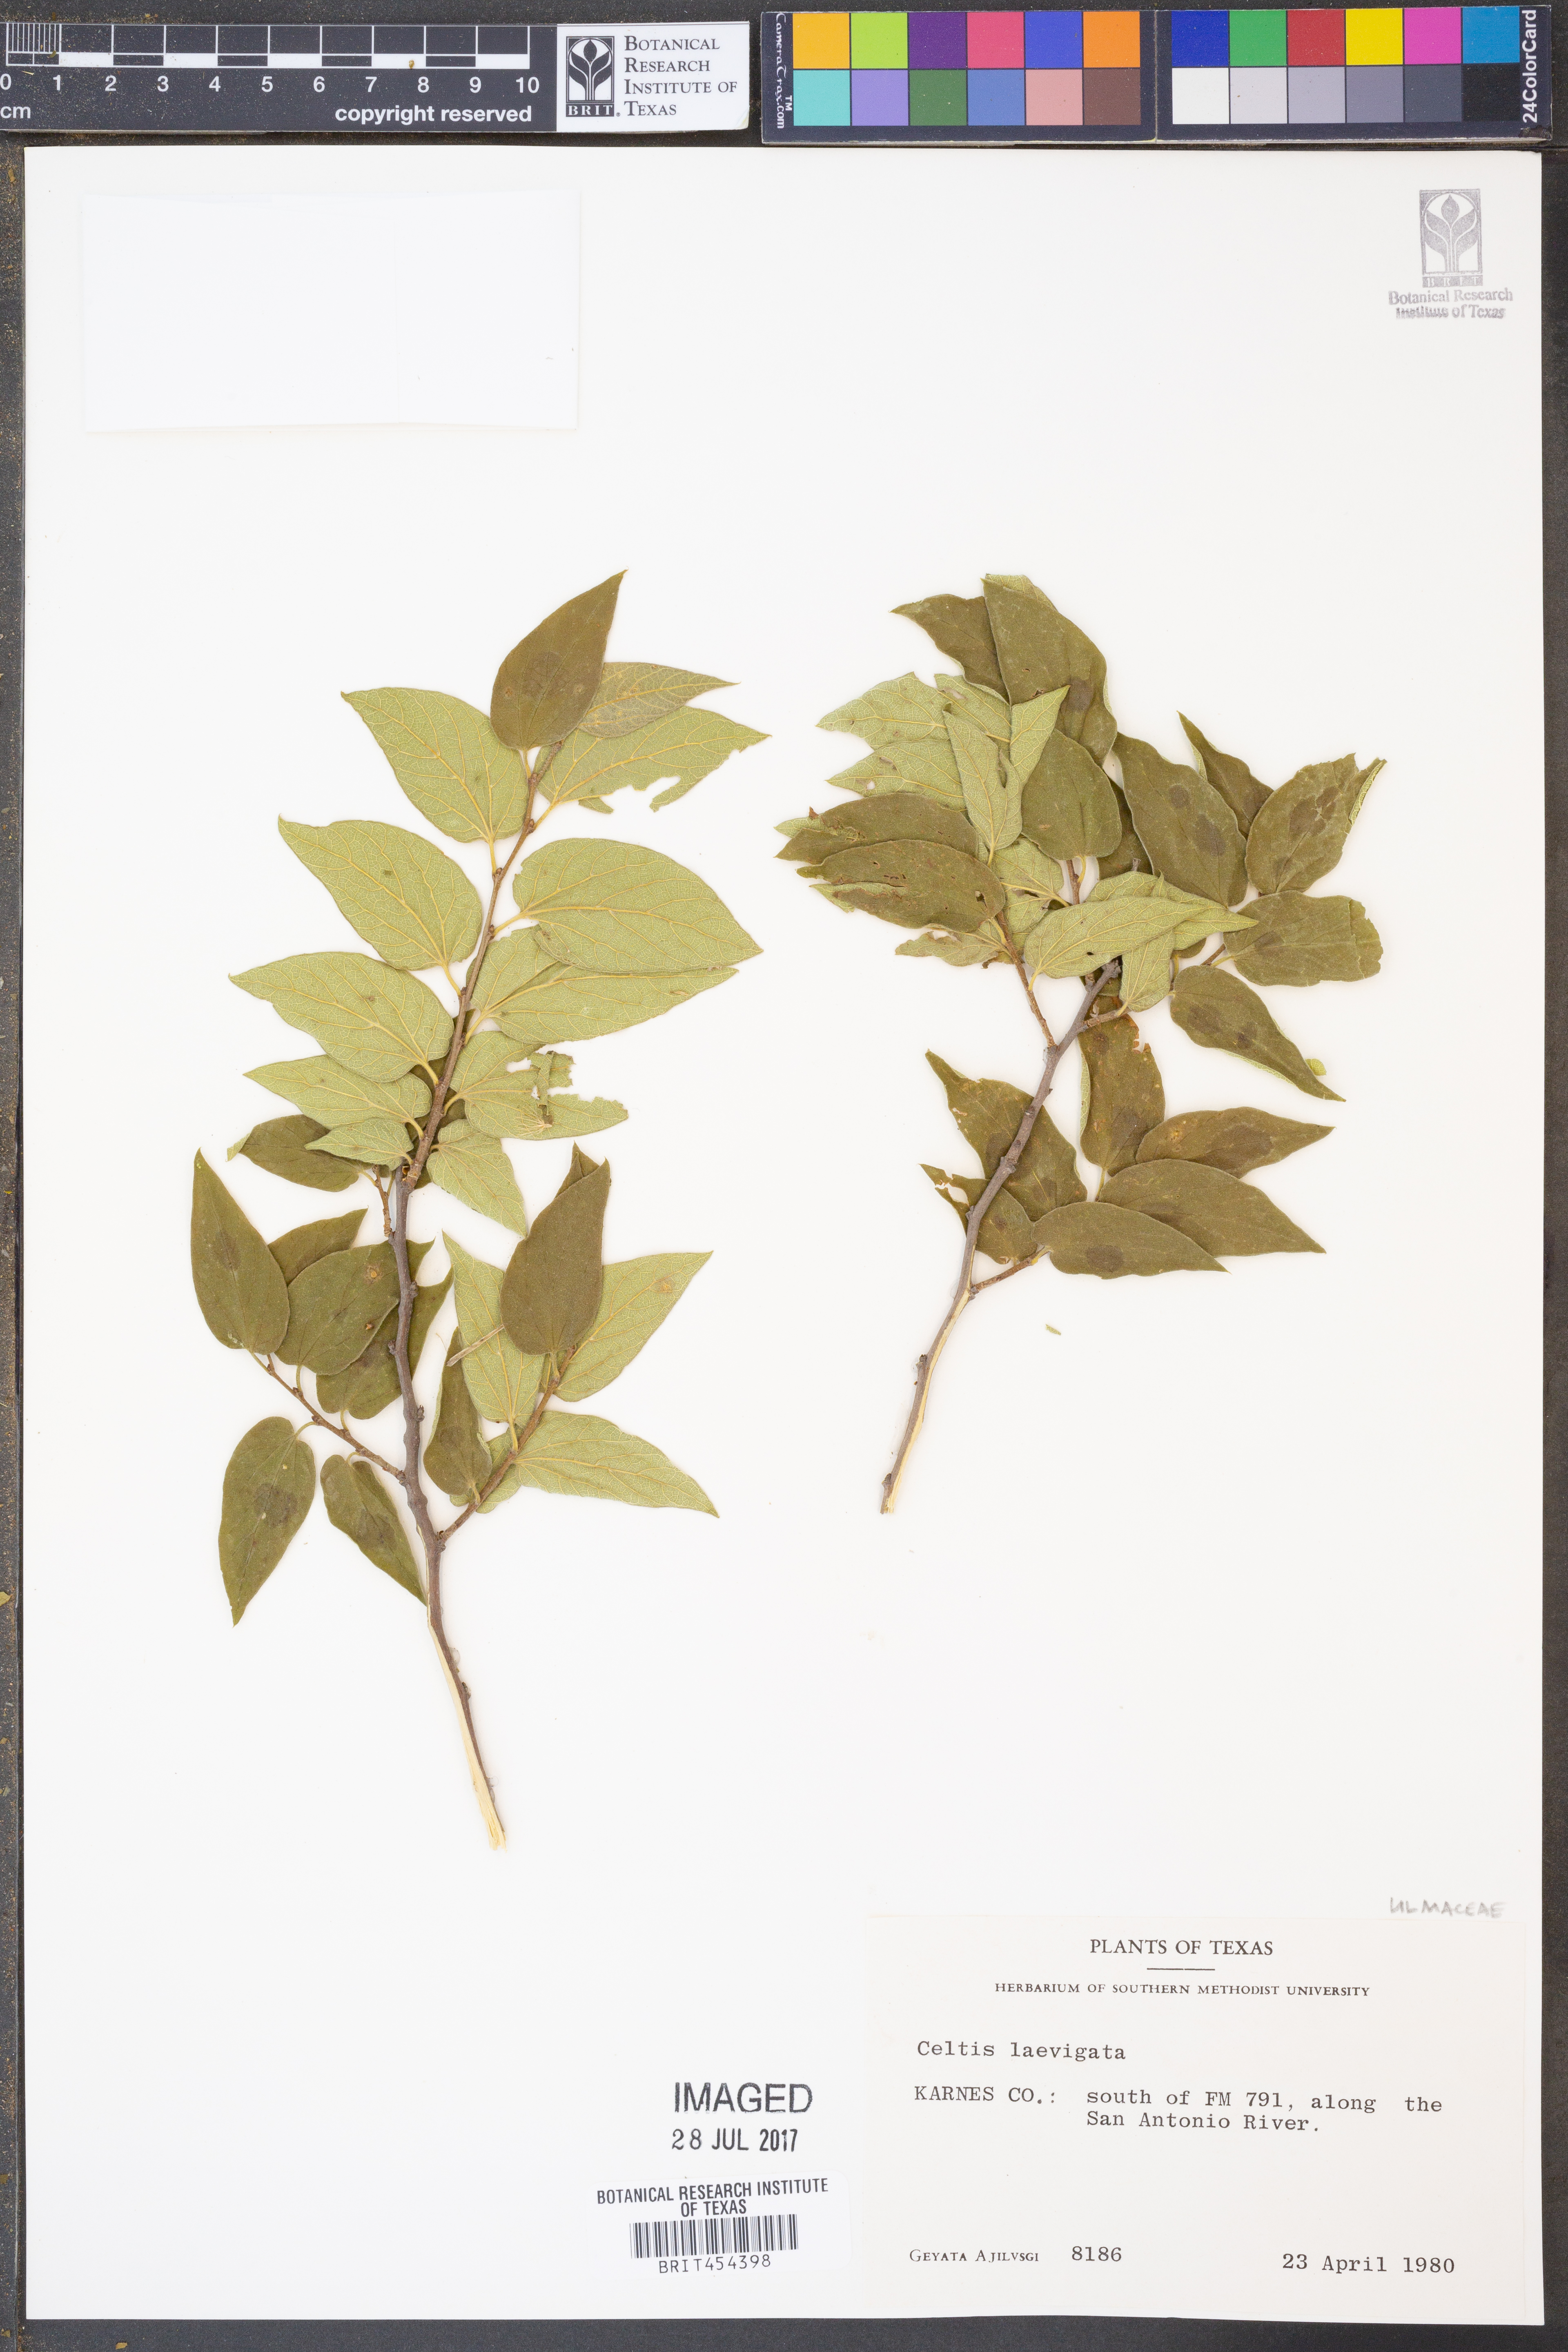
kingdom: Plantae
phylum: Tracheophyta
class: Magnoliopsida
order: Rosales
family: Cannabaceae
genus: Celtis
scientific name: Celtis laevigata
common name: Sugarberry
